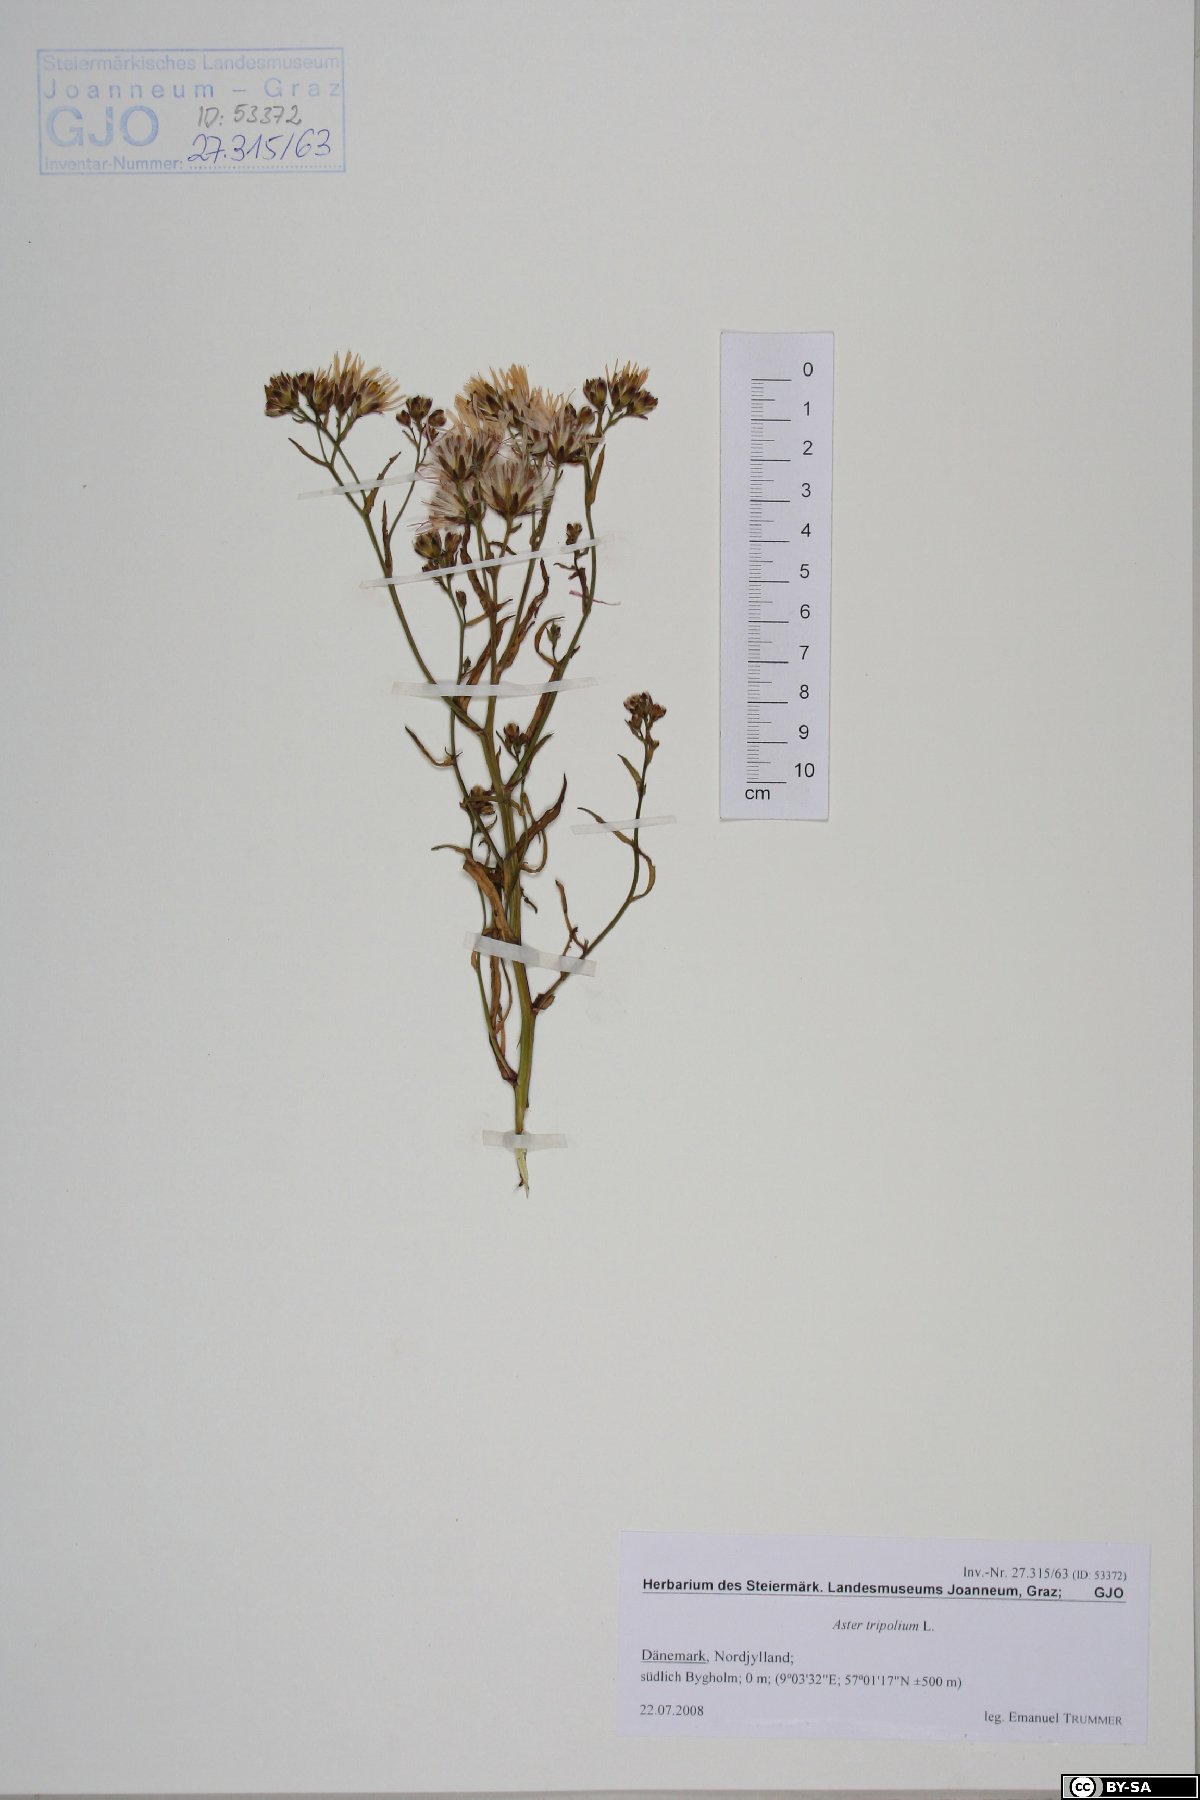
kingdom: Plantae
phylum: Tracheophyta
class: Magnoliopsida
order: Asterales
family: Asteraceae
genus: Tripolium
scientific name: Tripolium pannonicum
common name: Sea aster
